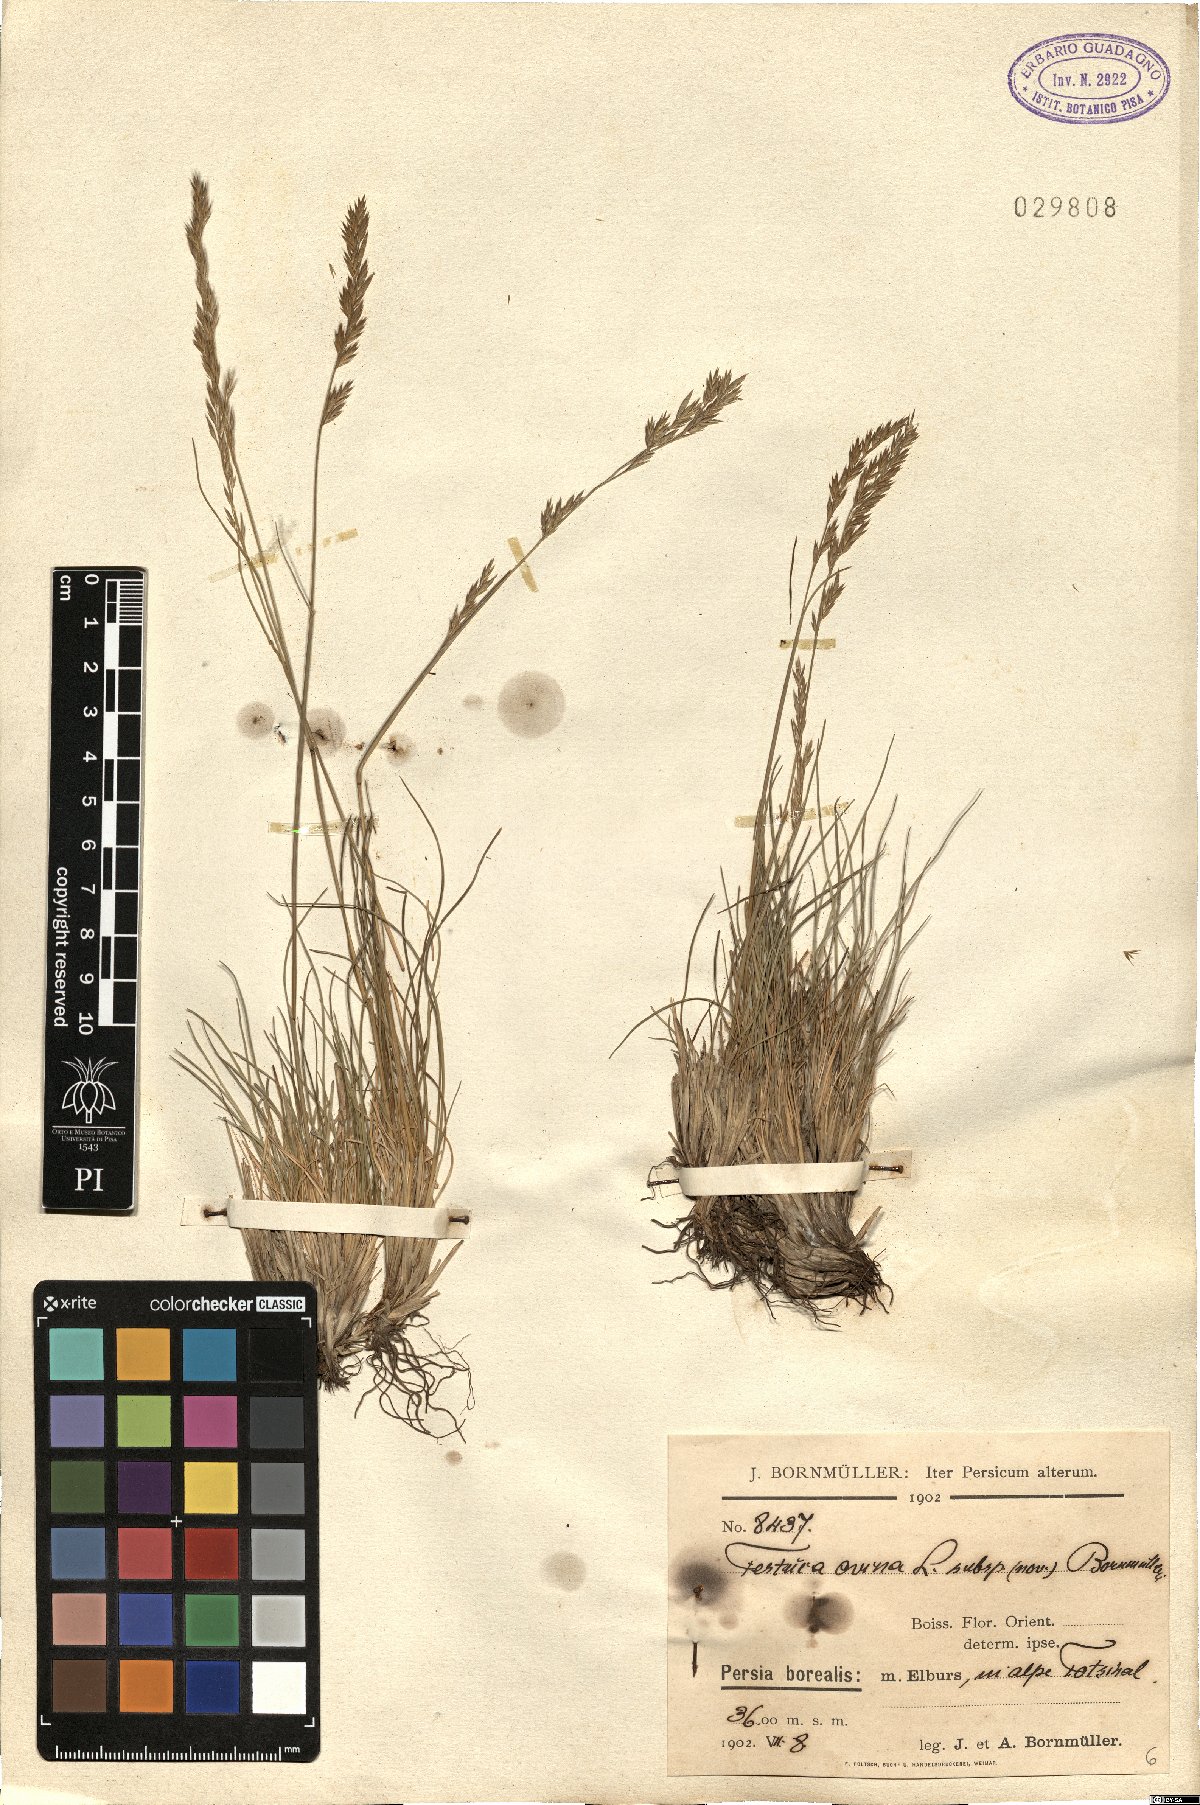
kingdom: Plantae
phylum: Tracheophyta
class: Liliopsida
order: Poales
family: Poaceae
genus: Festuca
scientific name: Festuca alaica
